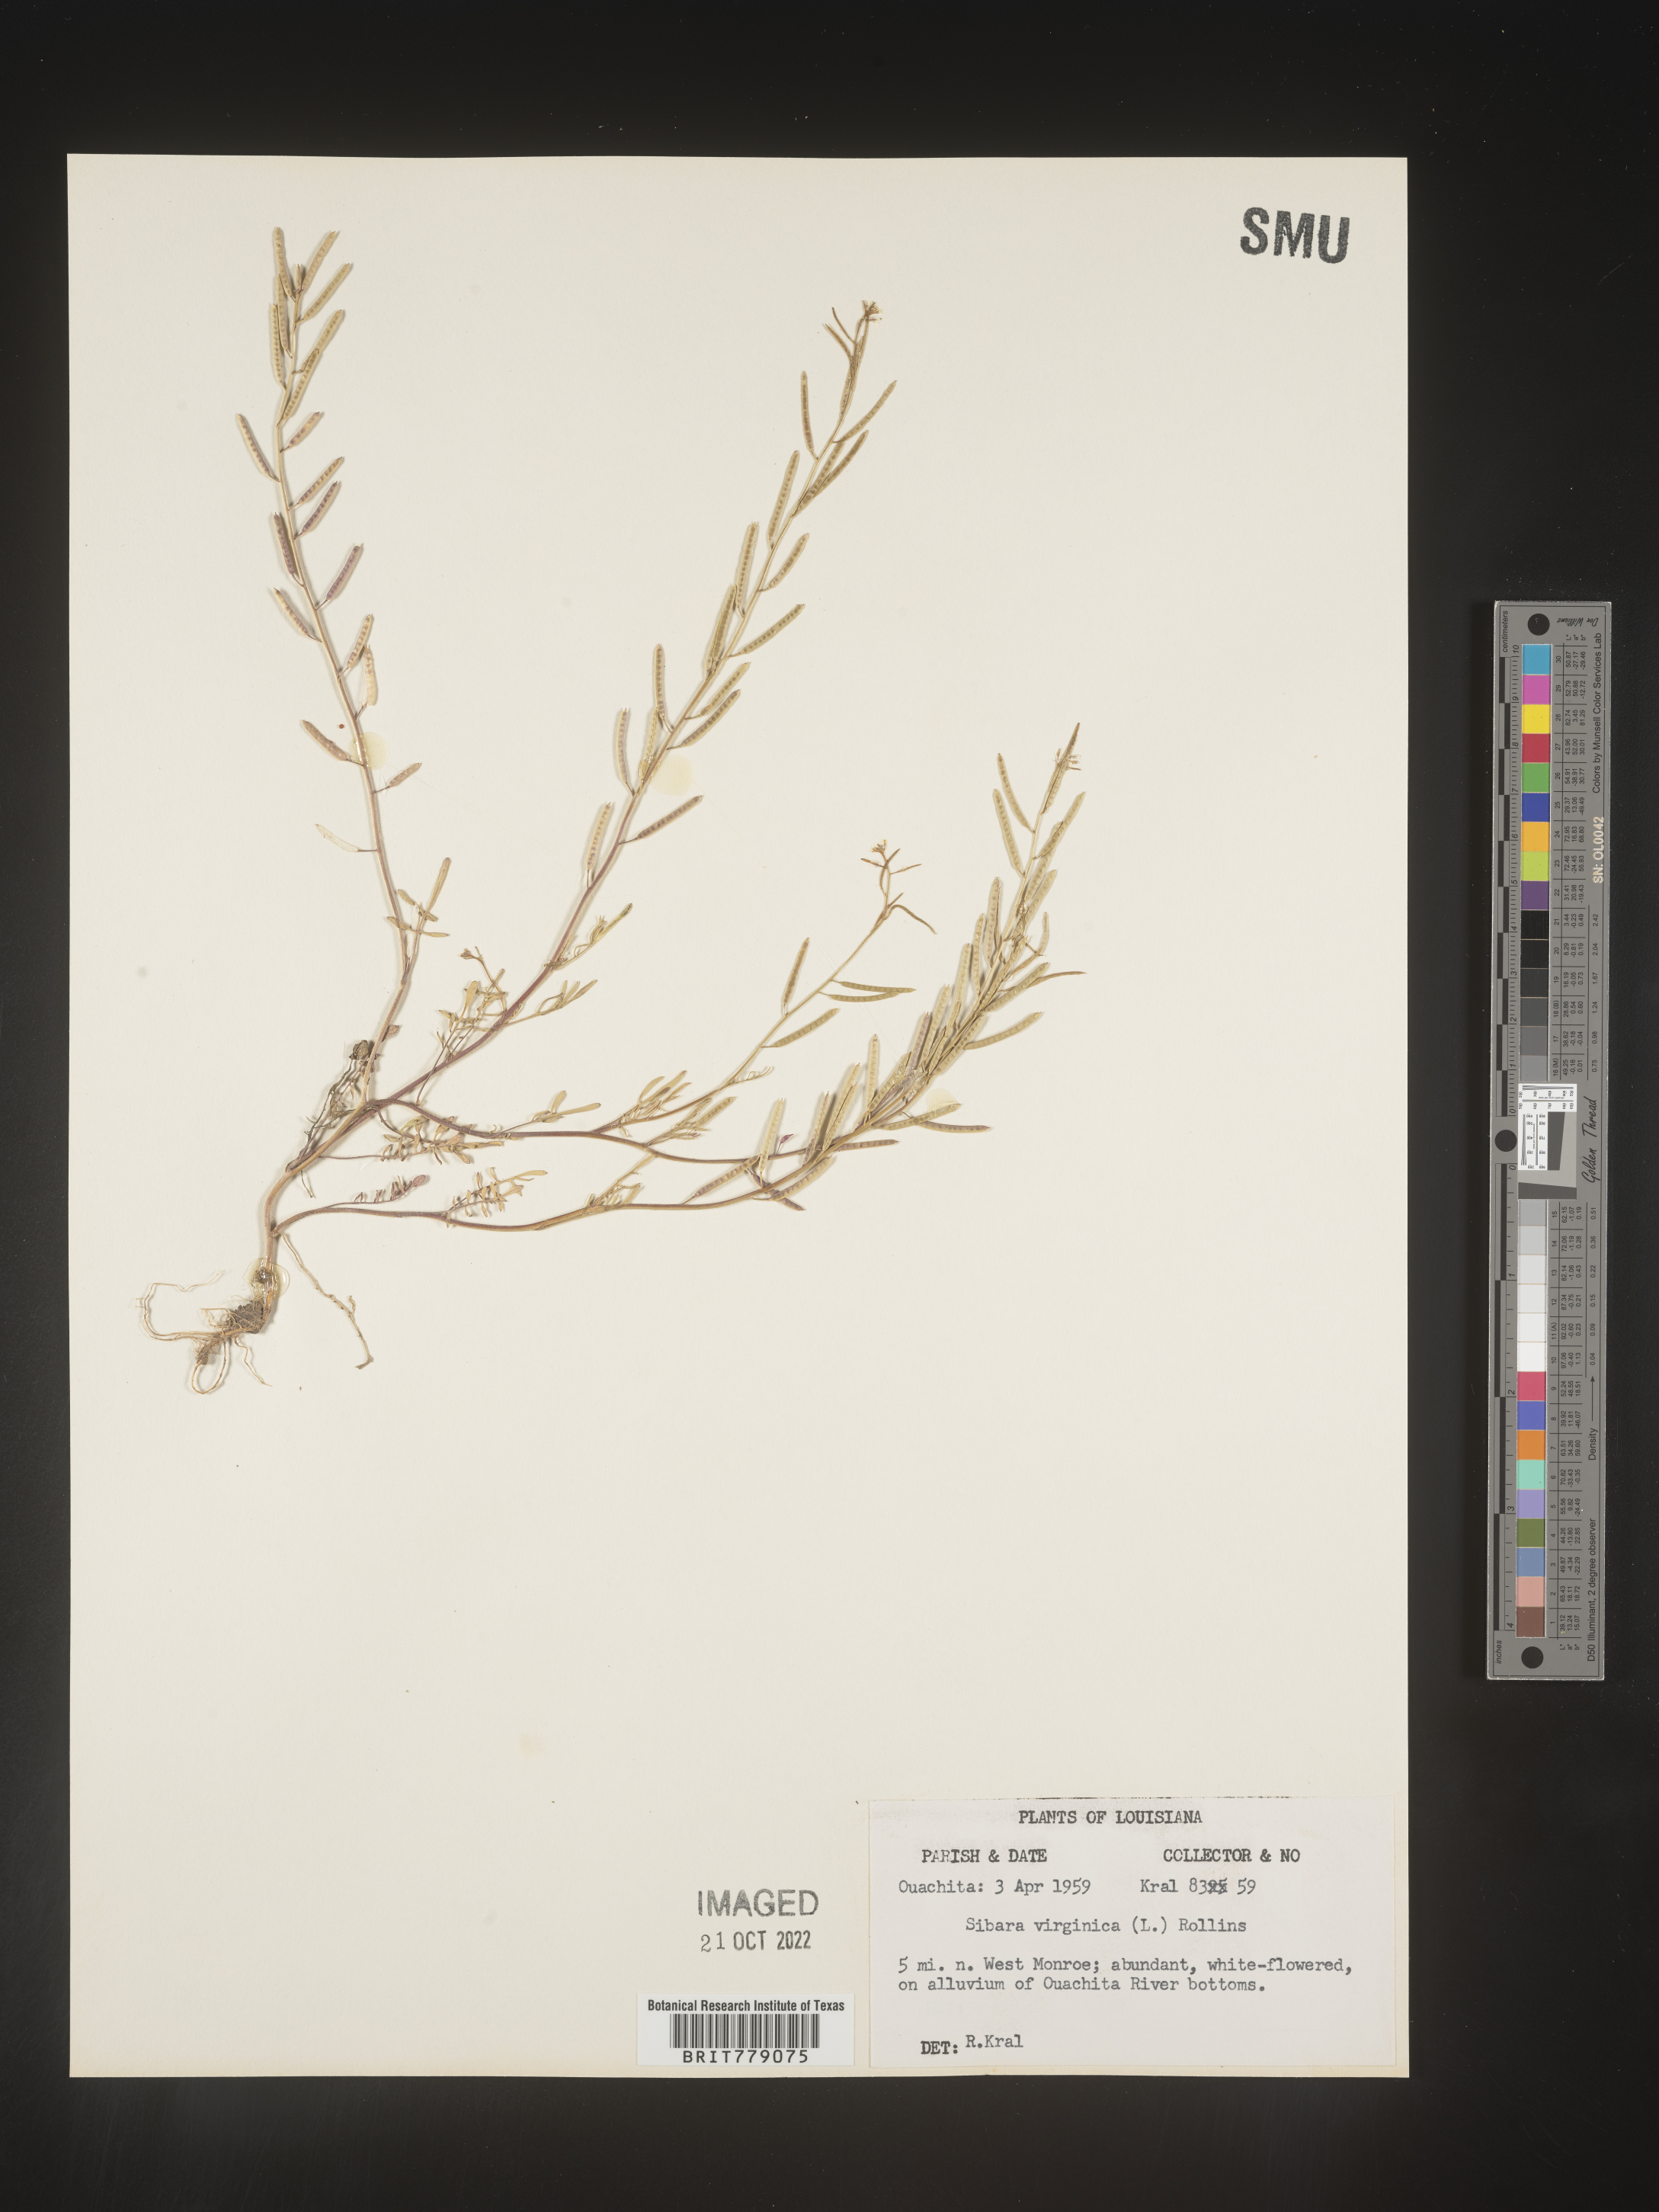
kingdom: Plantae
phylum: Tracheophyta
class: Magnoliopsida
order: Brassicales
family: Brassicaceae
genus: Sibara
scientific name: Sibara
